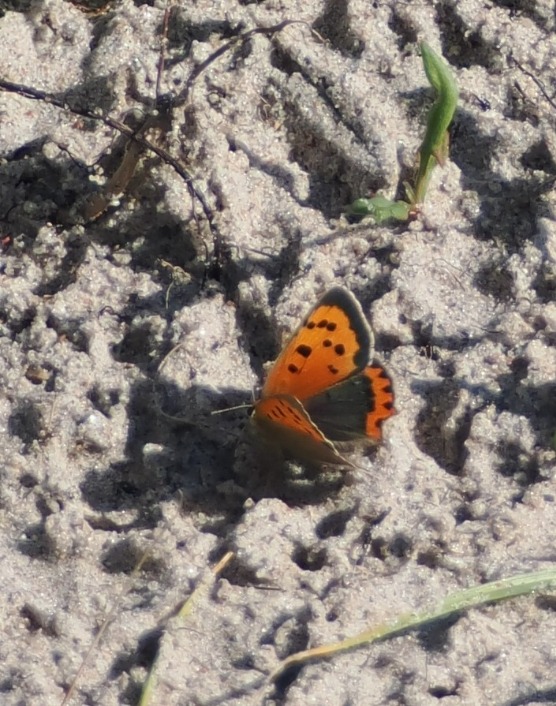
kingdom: Animalia
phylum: Arthropoda
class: Insecta
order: Lepidoptera
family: Lycaenidae
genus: Lycaena
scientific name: Lycaena phlaeas
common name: Lille ildfugl
